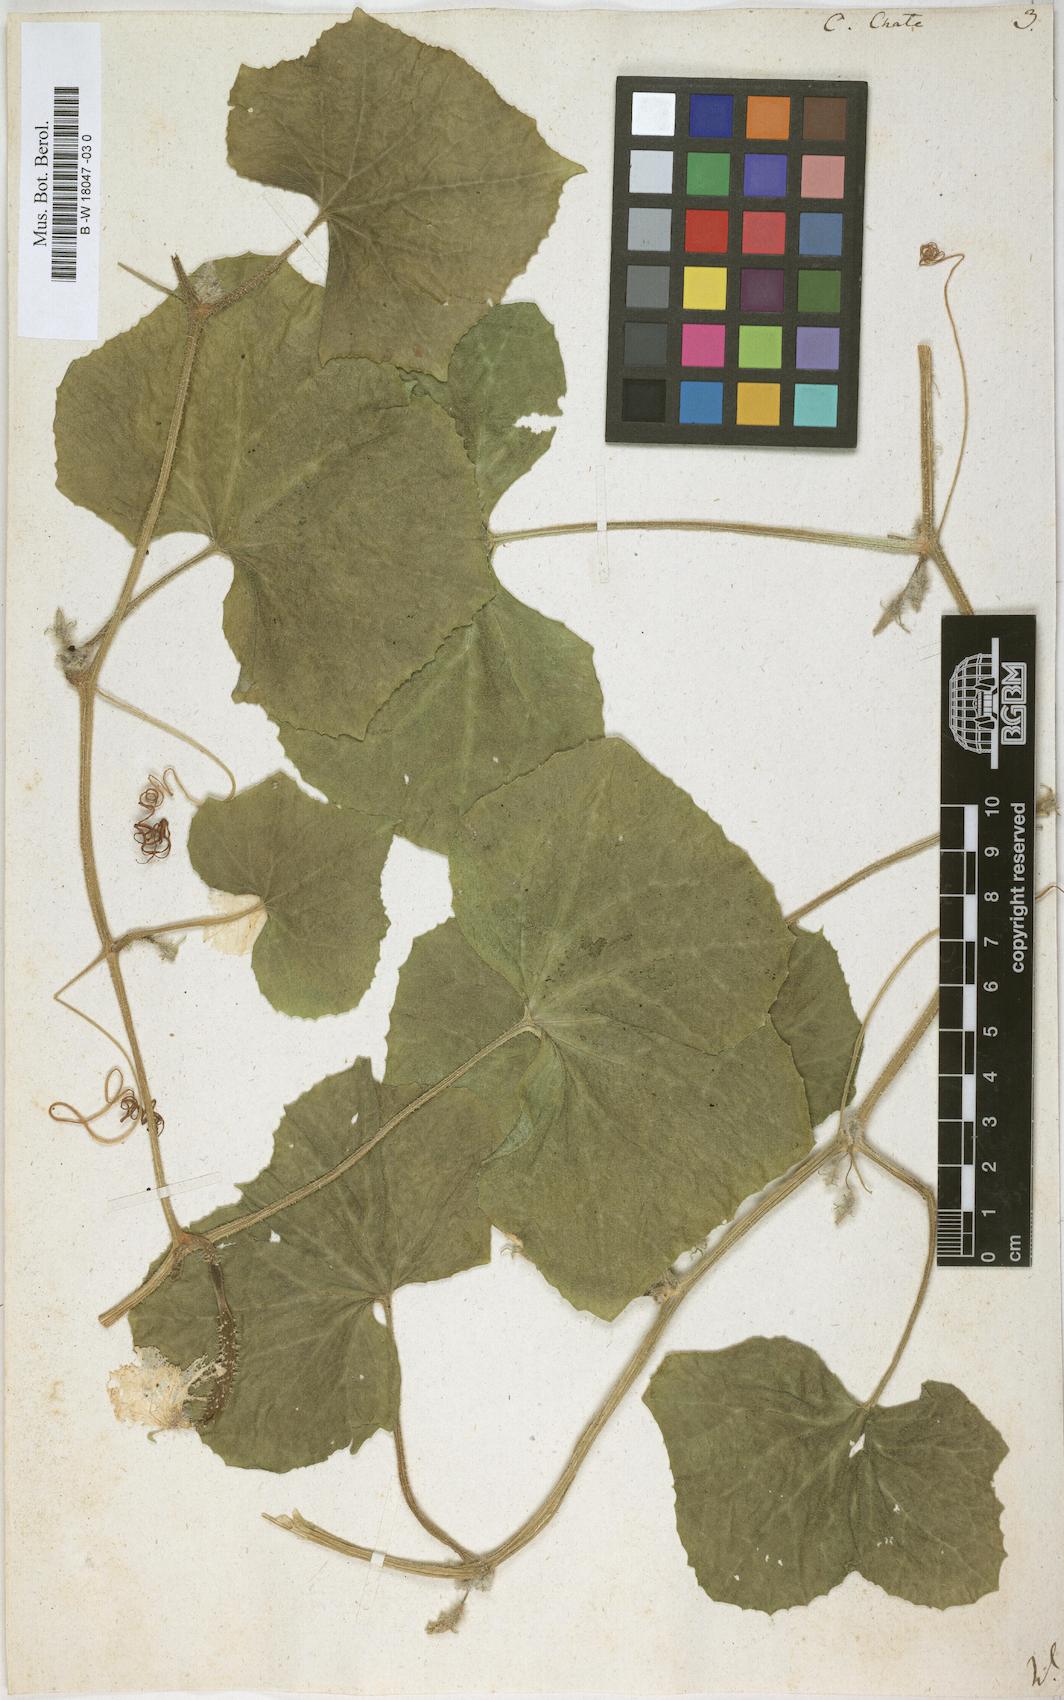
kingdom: Plantae
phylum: Tracheophyta
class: Magnoliopsida
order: Cucurbitales
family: Cucurbitaceae
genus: Cucumis
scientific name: Cucumis melo
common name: Melon
